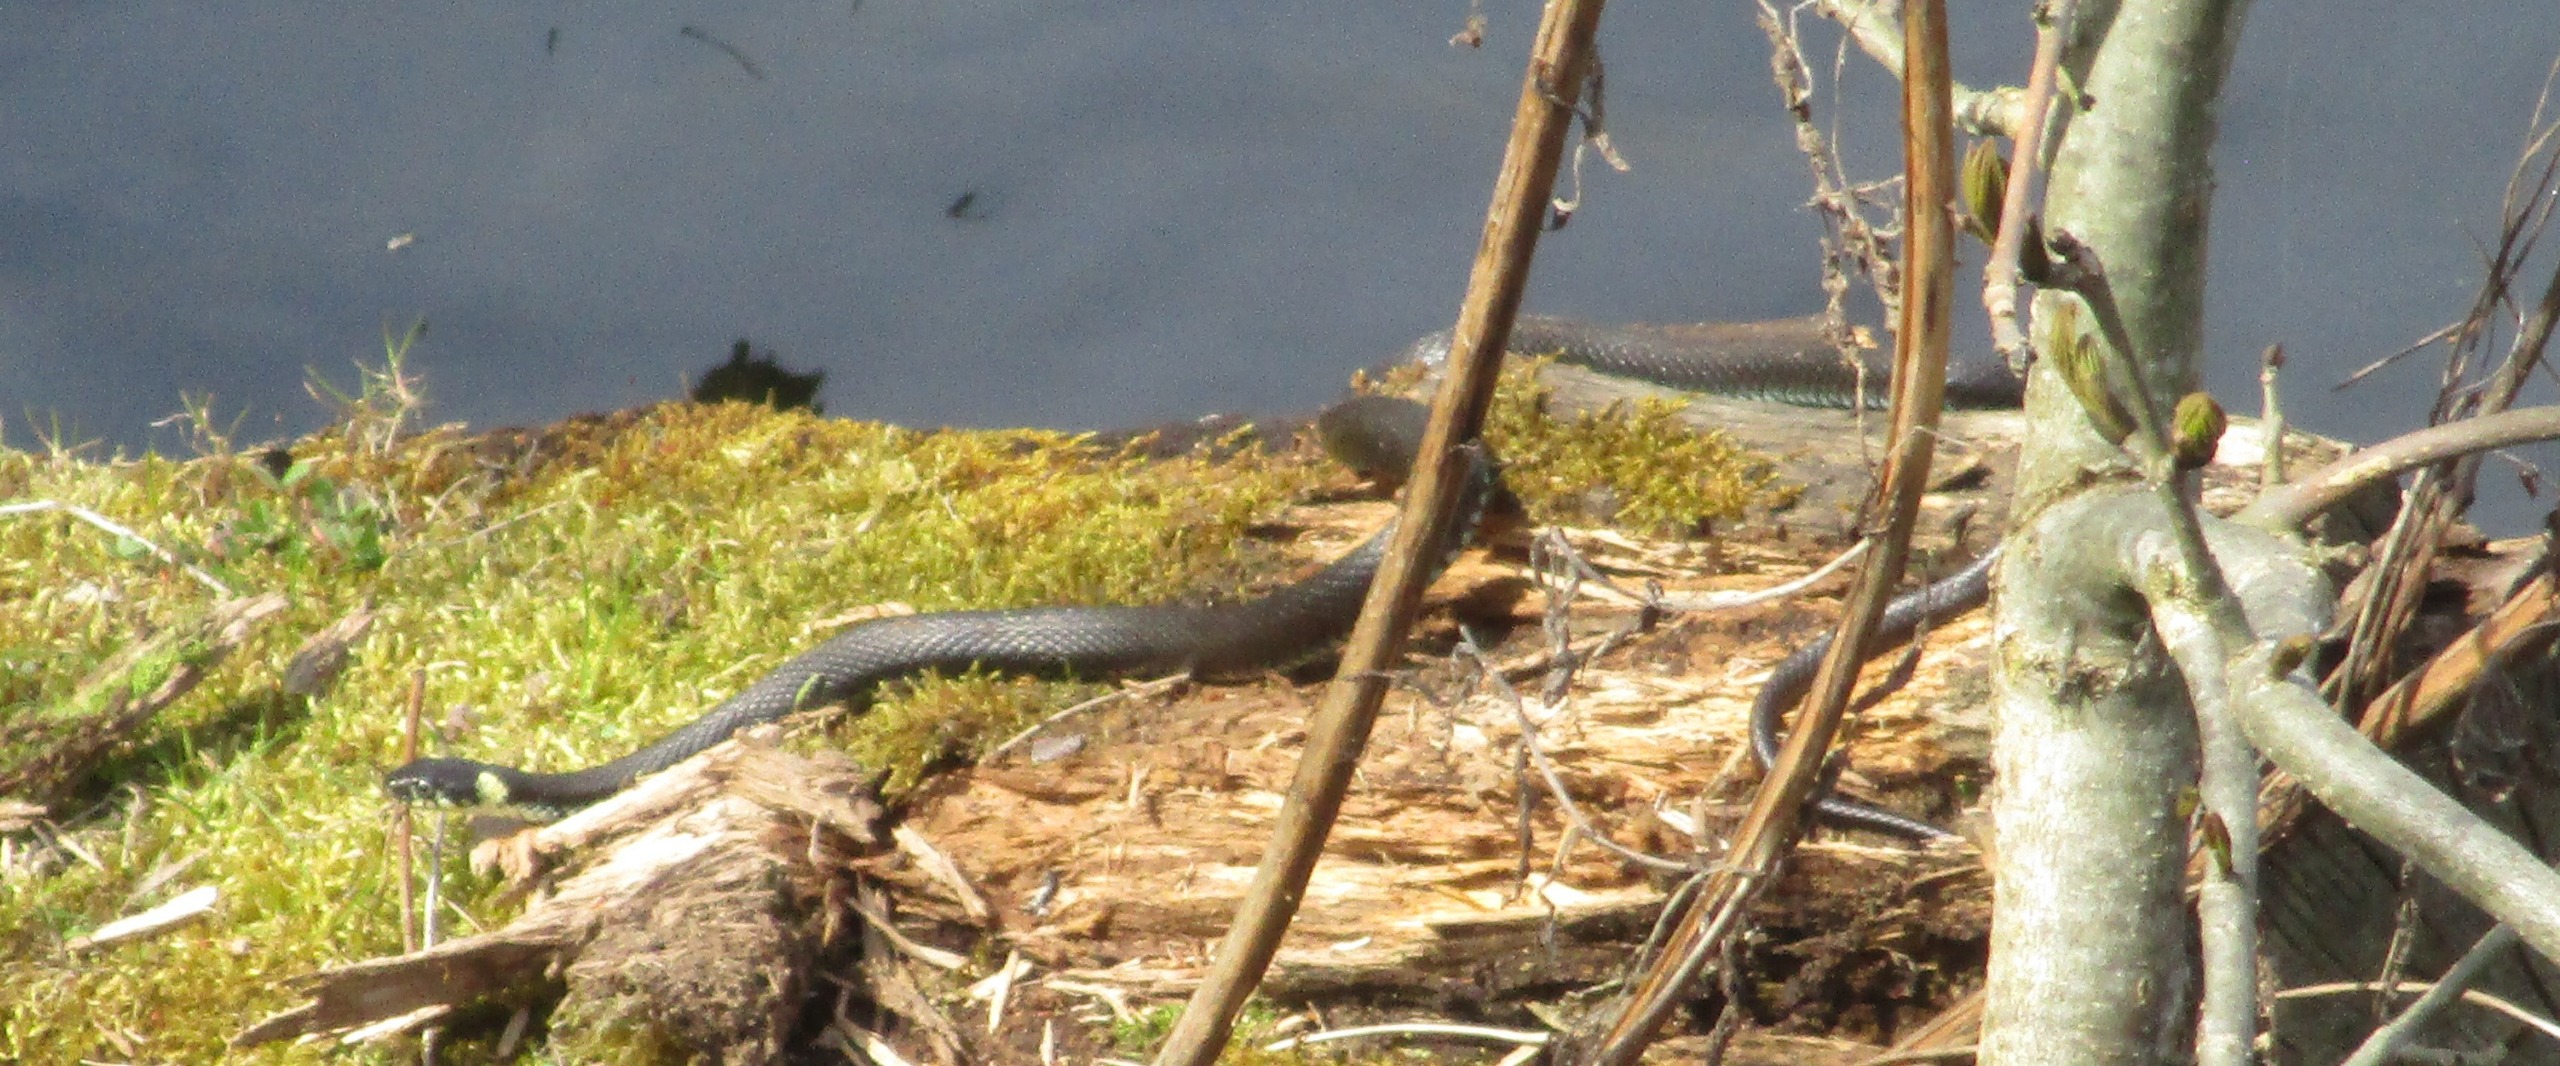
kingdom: Animalia
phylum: Chordata
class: Squamata
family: Colubridae
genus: Natrix
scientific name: Natrix natrix
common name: Snog
